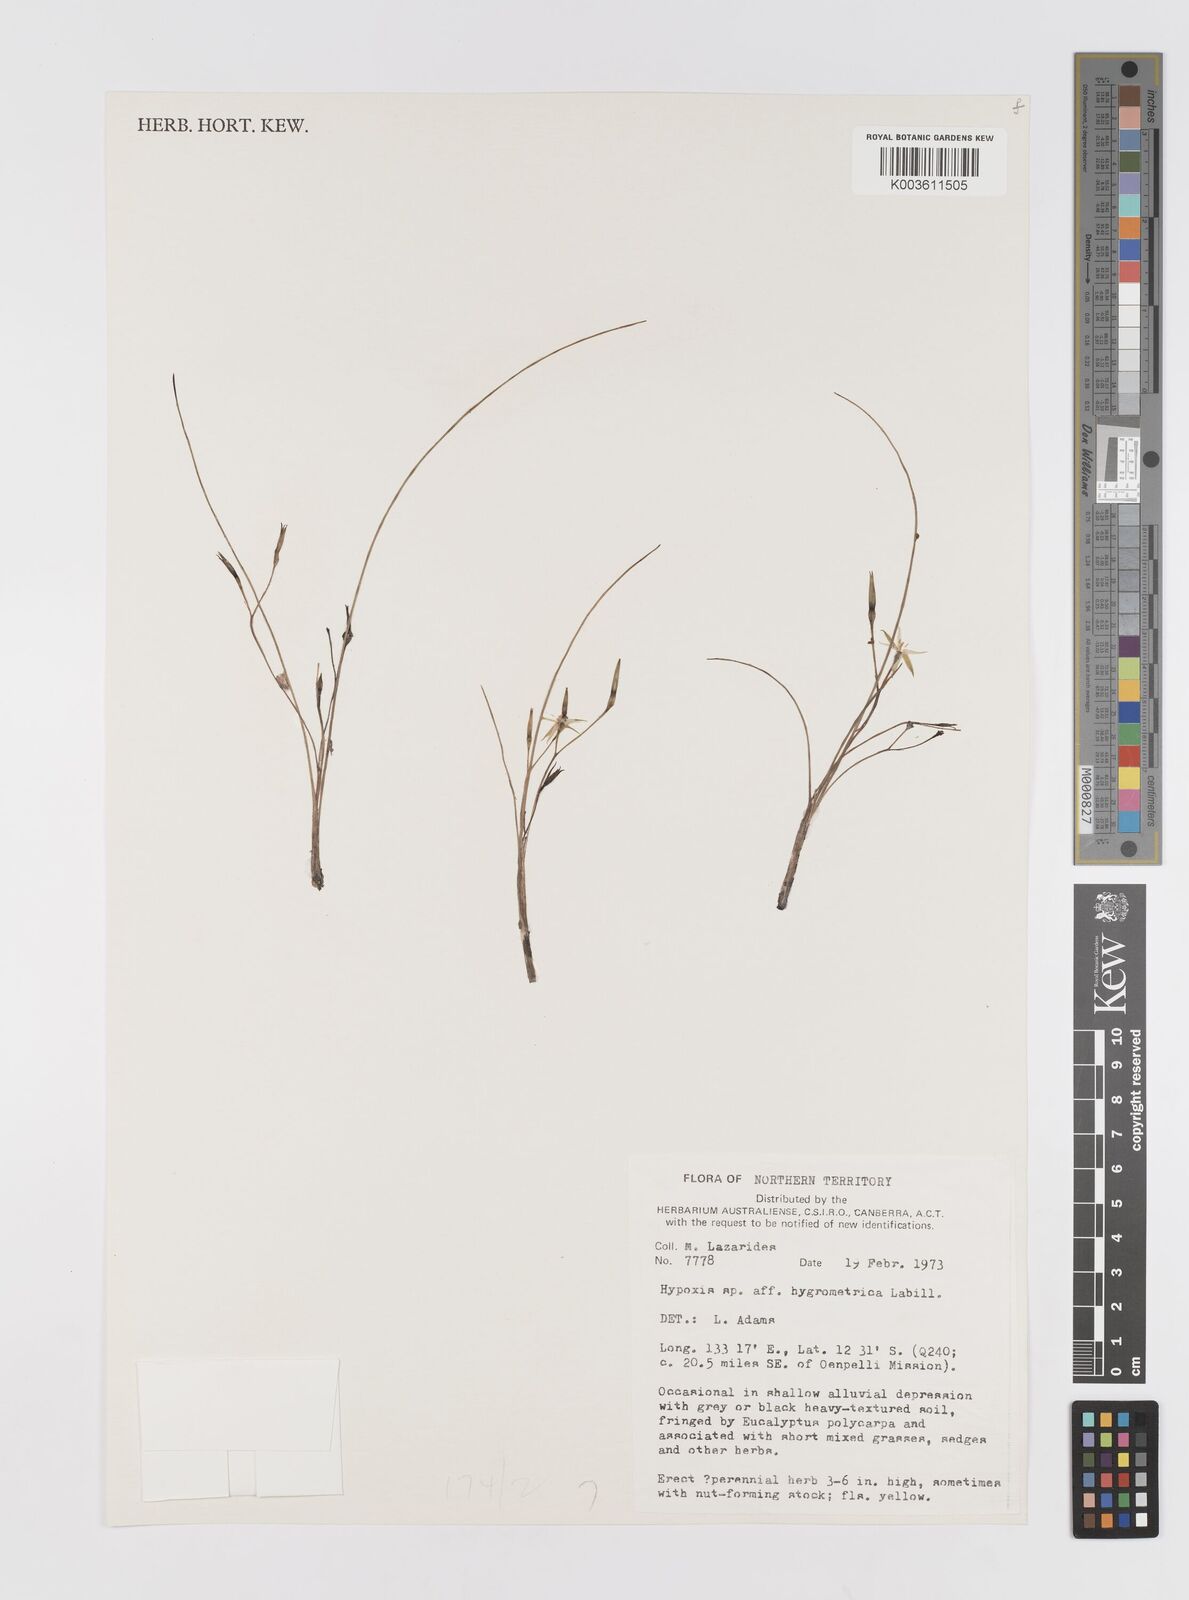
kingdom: Plantae
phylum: Tracheophyta
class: Liliopsida
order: Asparagales
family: Hypoxidaceae
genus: Hypoxis
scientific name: Hypoxis hygrometrica
